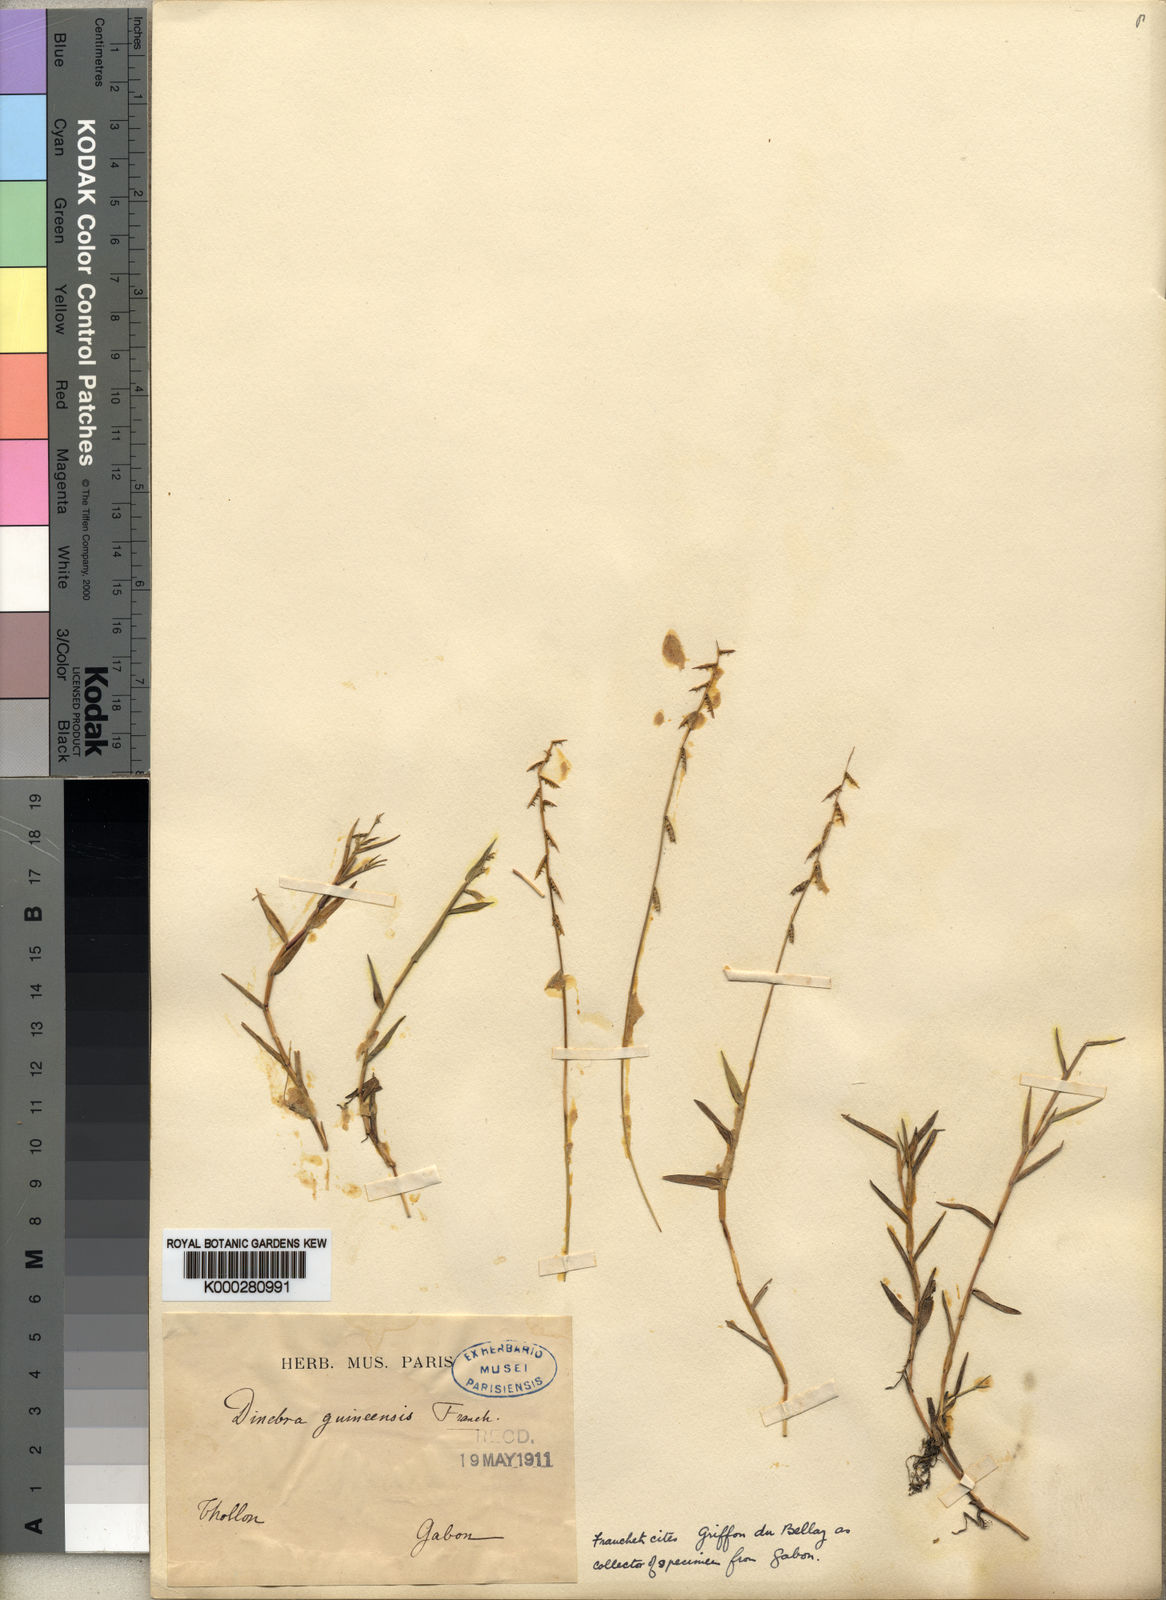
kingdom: Plantae
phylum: Tracheophyta
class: Liliopsida
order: Poales
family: Poaceae
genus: Heteranthoecia
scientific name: Heteranthoecia guineensis
